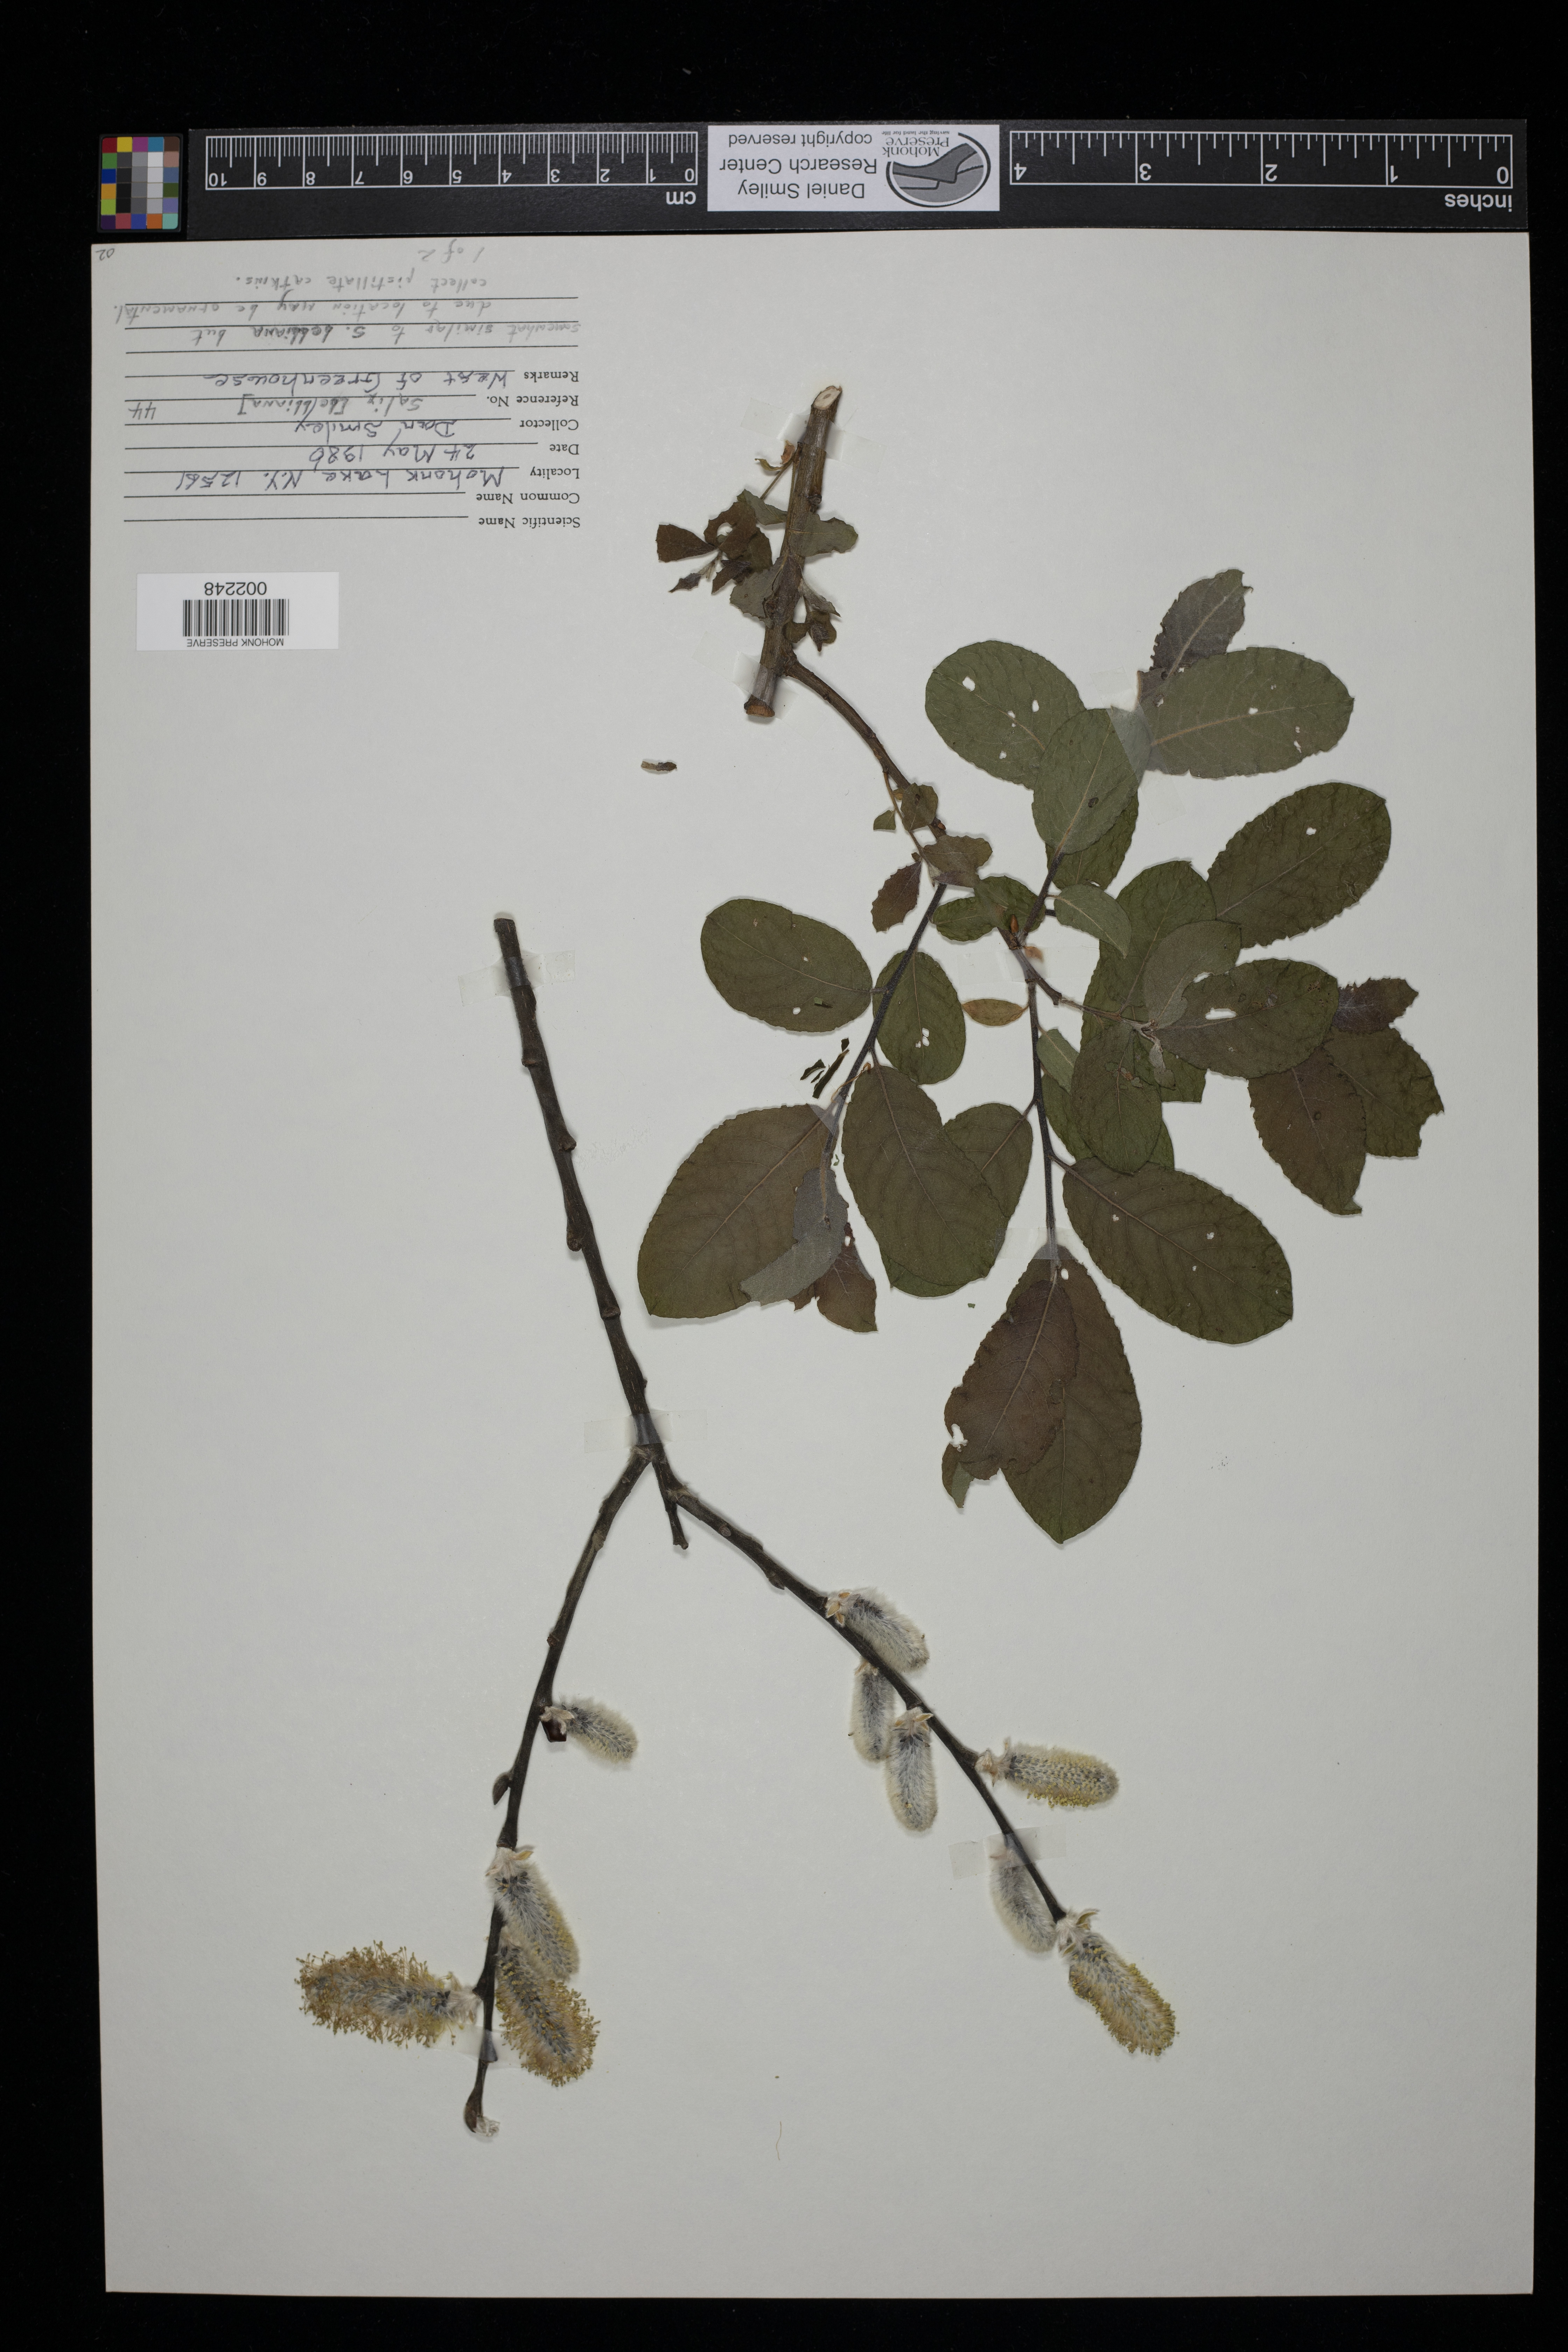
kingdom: Plantae
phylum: Tracheophyta
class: Magnoliopsida
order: Malpighiales
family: Salicaceae
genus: Salix
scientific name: Salix bebbiana
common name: Bebb's willow
